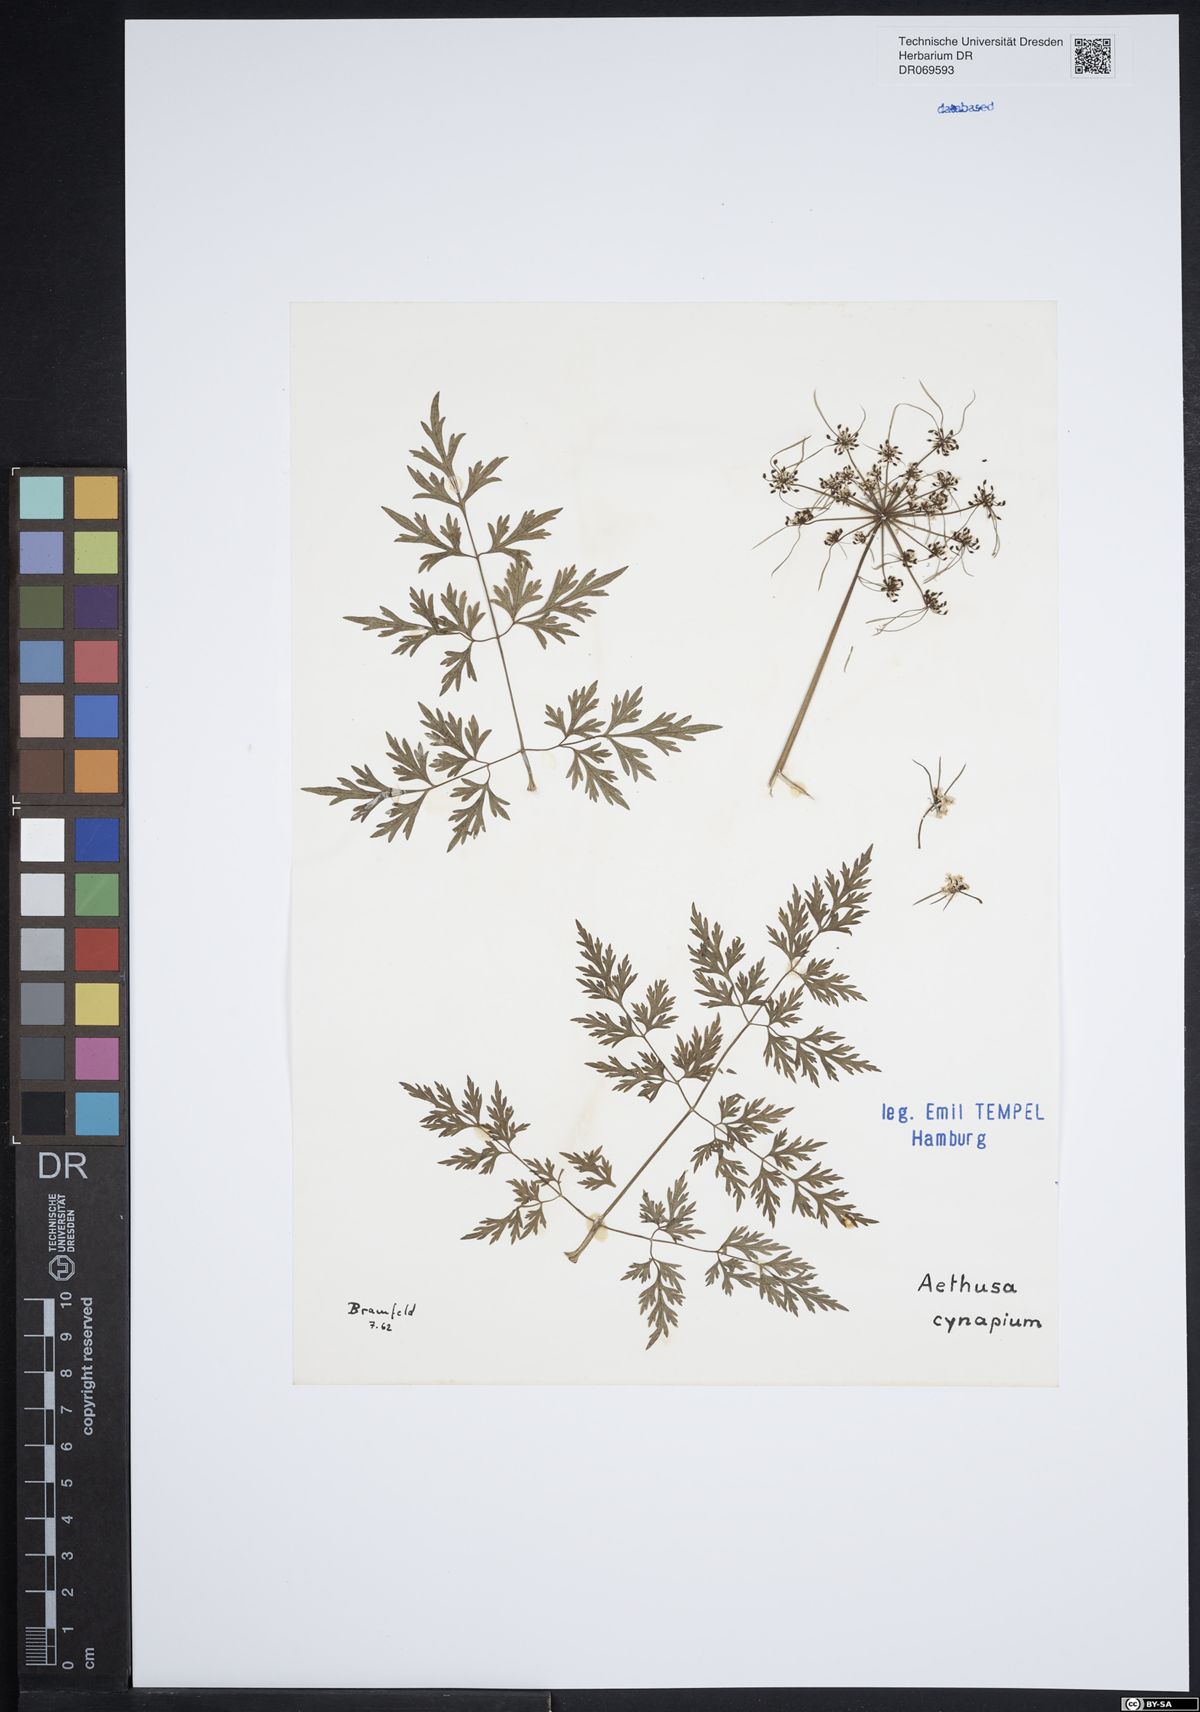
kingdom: Plantae
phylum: Tracheophyta
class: Magnoliopsida
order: Apiales
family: Apiaceae
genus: Aethusa
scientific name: Aethusa cynapium
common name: Fool's parsley
